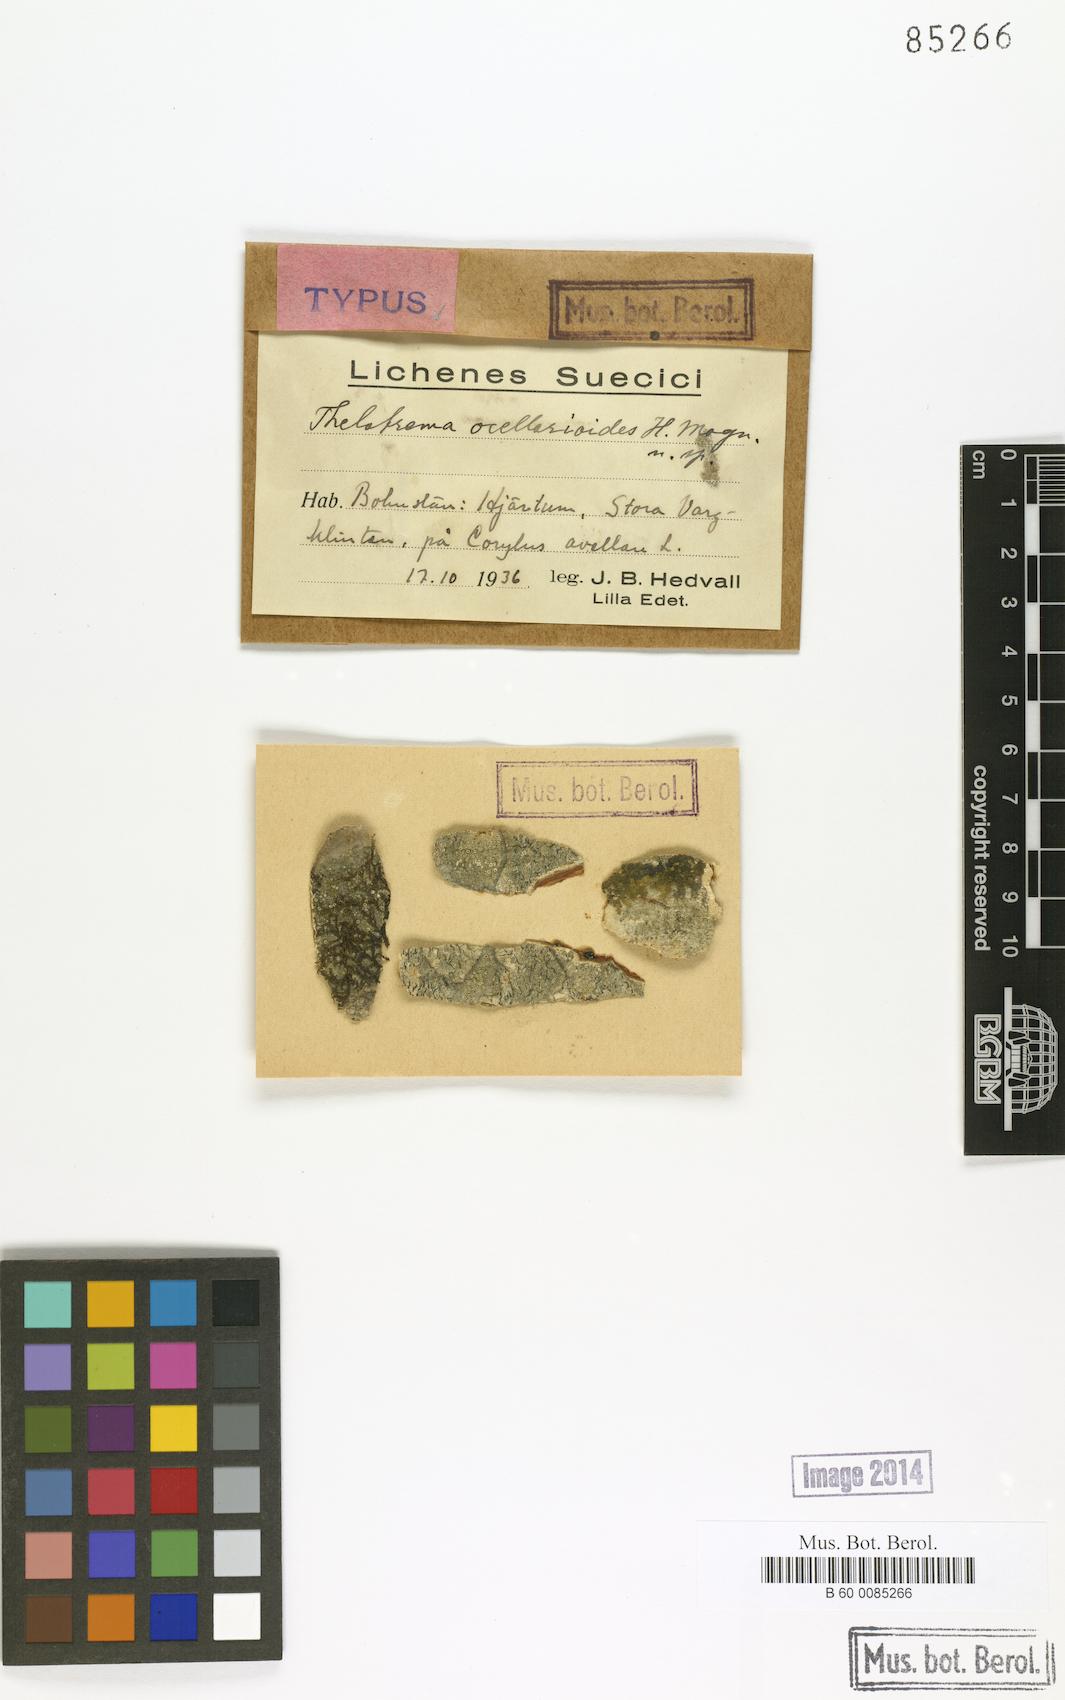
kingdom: Fungi
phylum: Ascomycota
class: Lecanoromycetes
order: Ostropales
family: Graphidaceae
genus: Thelotrema
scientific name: Thelotrema
